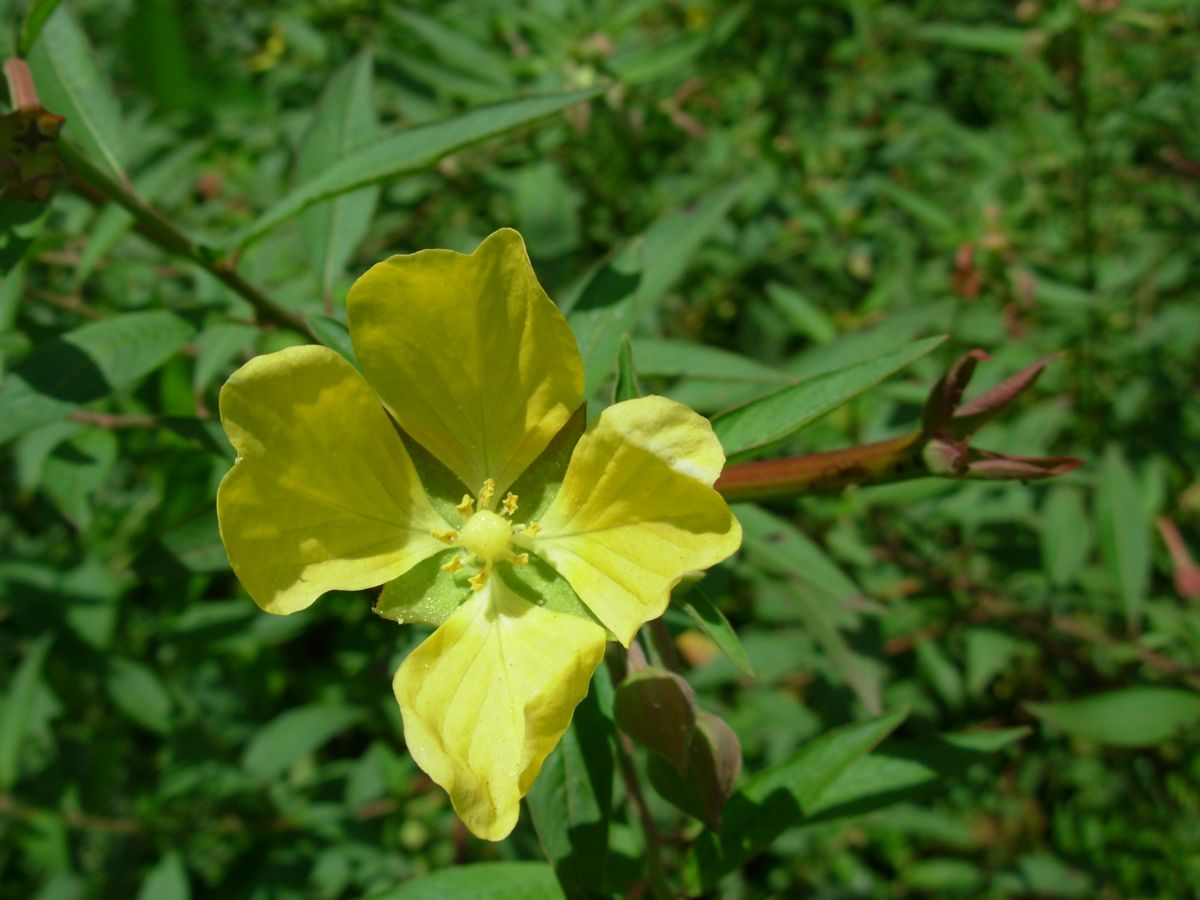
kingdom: Plantae
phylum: Tracheophyta
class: Magnoliopsida
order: Myrtales
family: Onagraceae
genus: Ludwigia
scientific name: Ludwigia octovalvis
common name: Water-primrose
